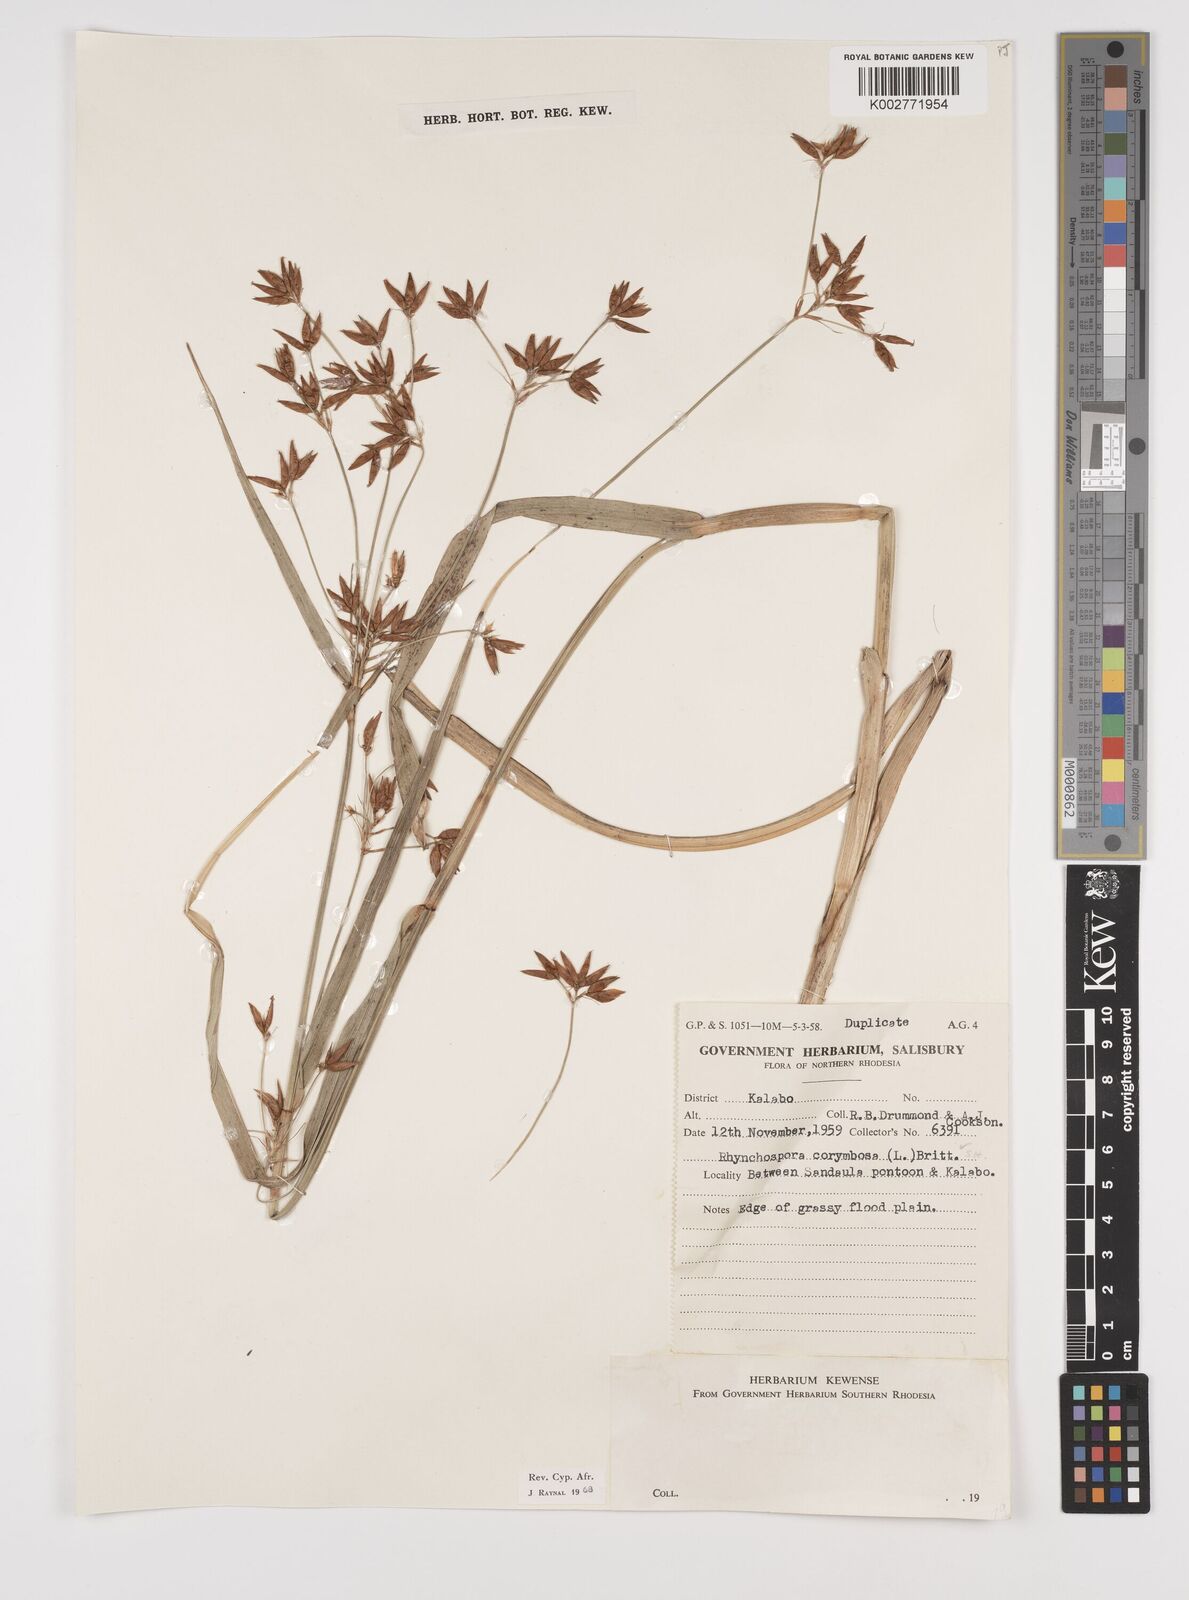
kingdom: Plantae
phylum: Tracheophyta
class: Liliopsida
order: Poales
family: Cyperaceae
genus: Rhynchospora
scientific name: Rhynchospora corymbosa
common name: Golden beak sedge
